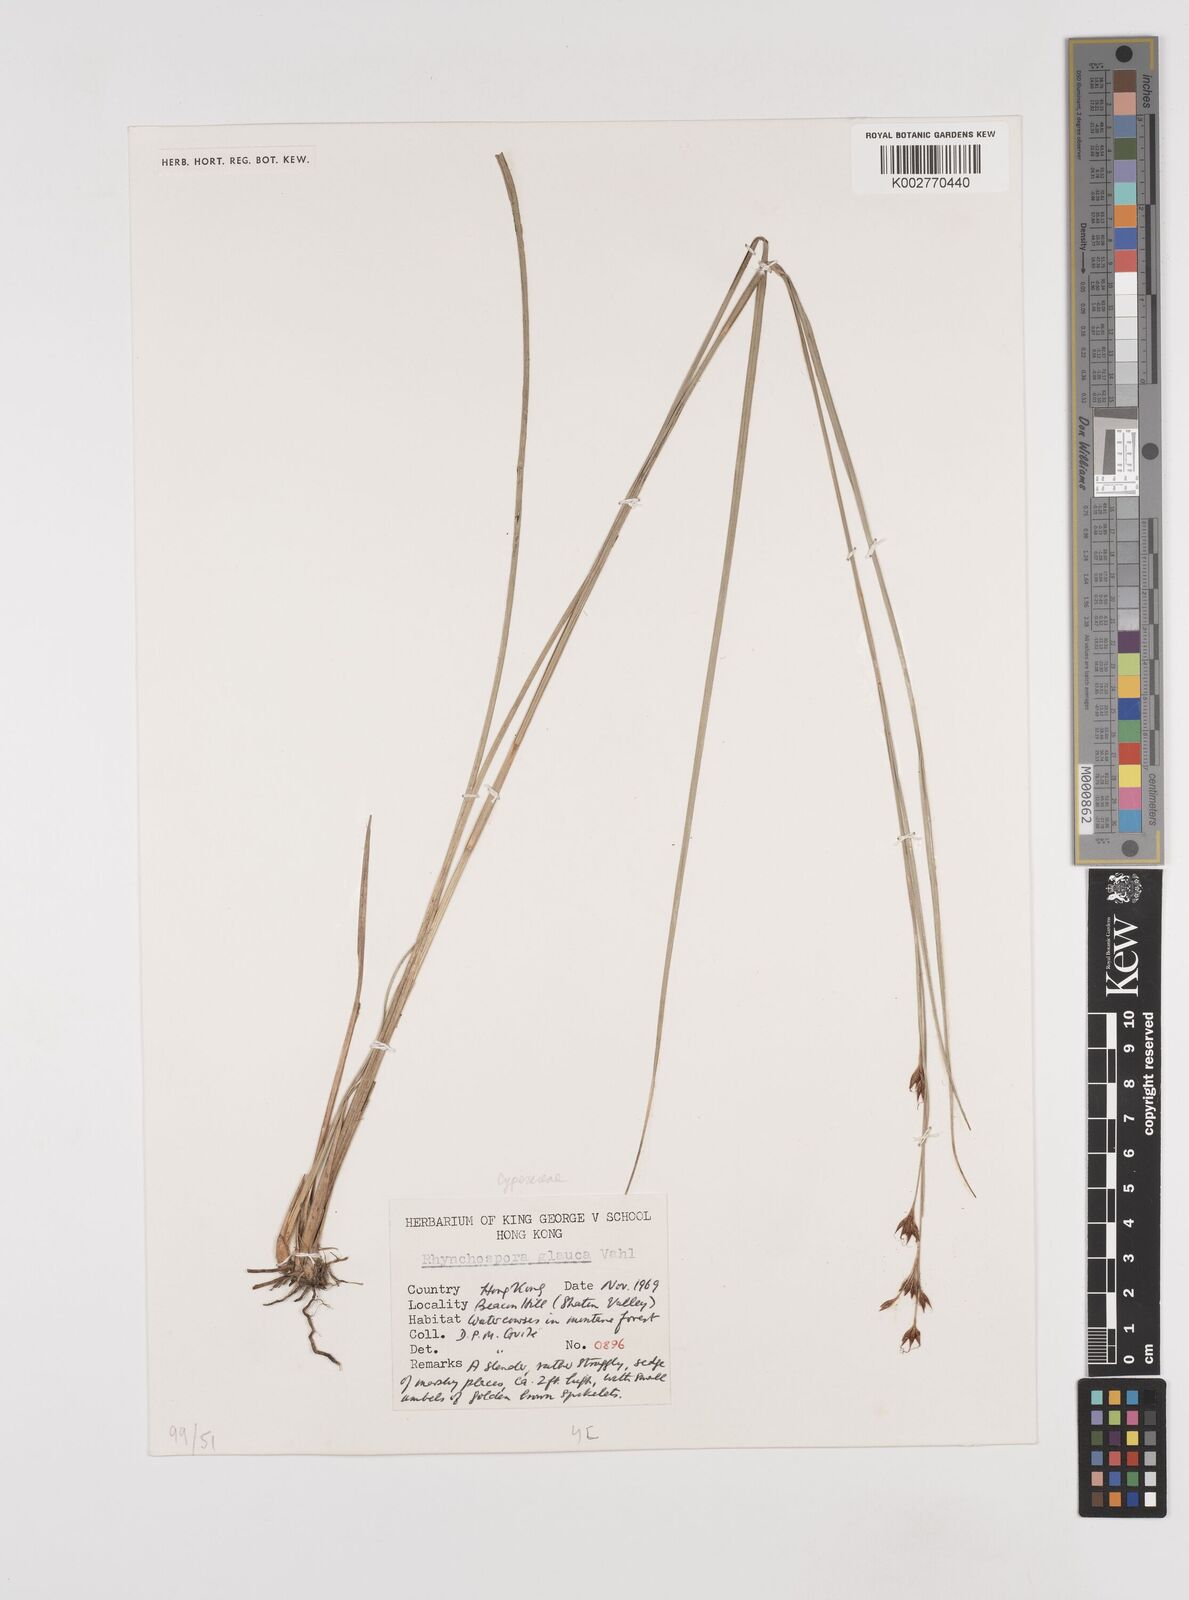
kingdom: Plantae
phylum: Tracheophyta
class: Liliopsida
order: Poales
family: Cyperaceae
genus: Rhynchospora
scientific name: Rhynchospora
